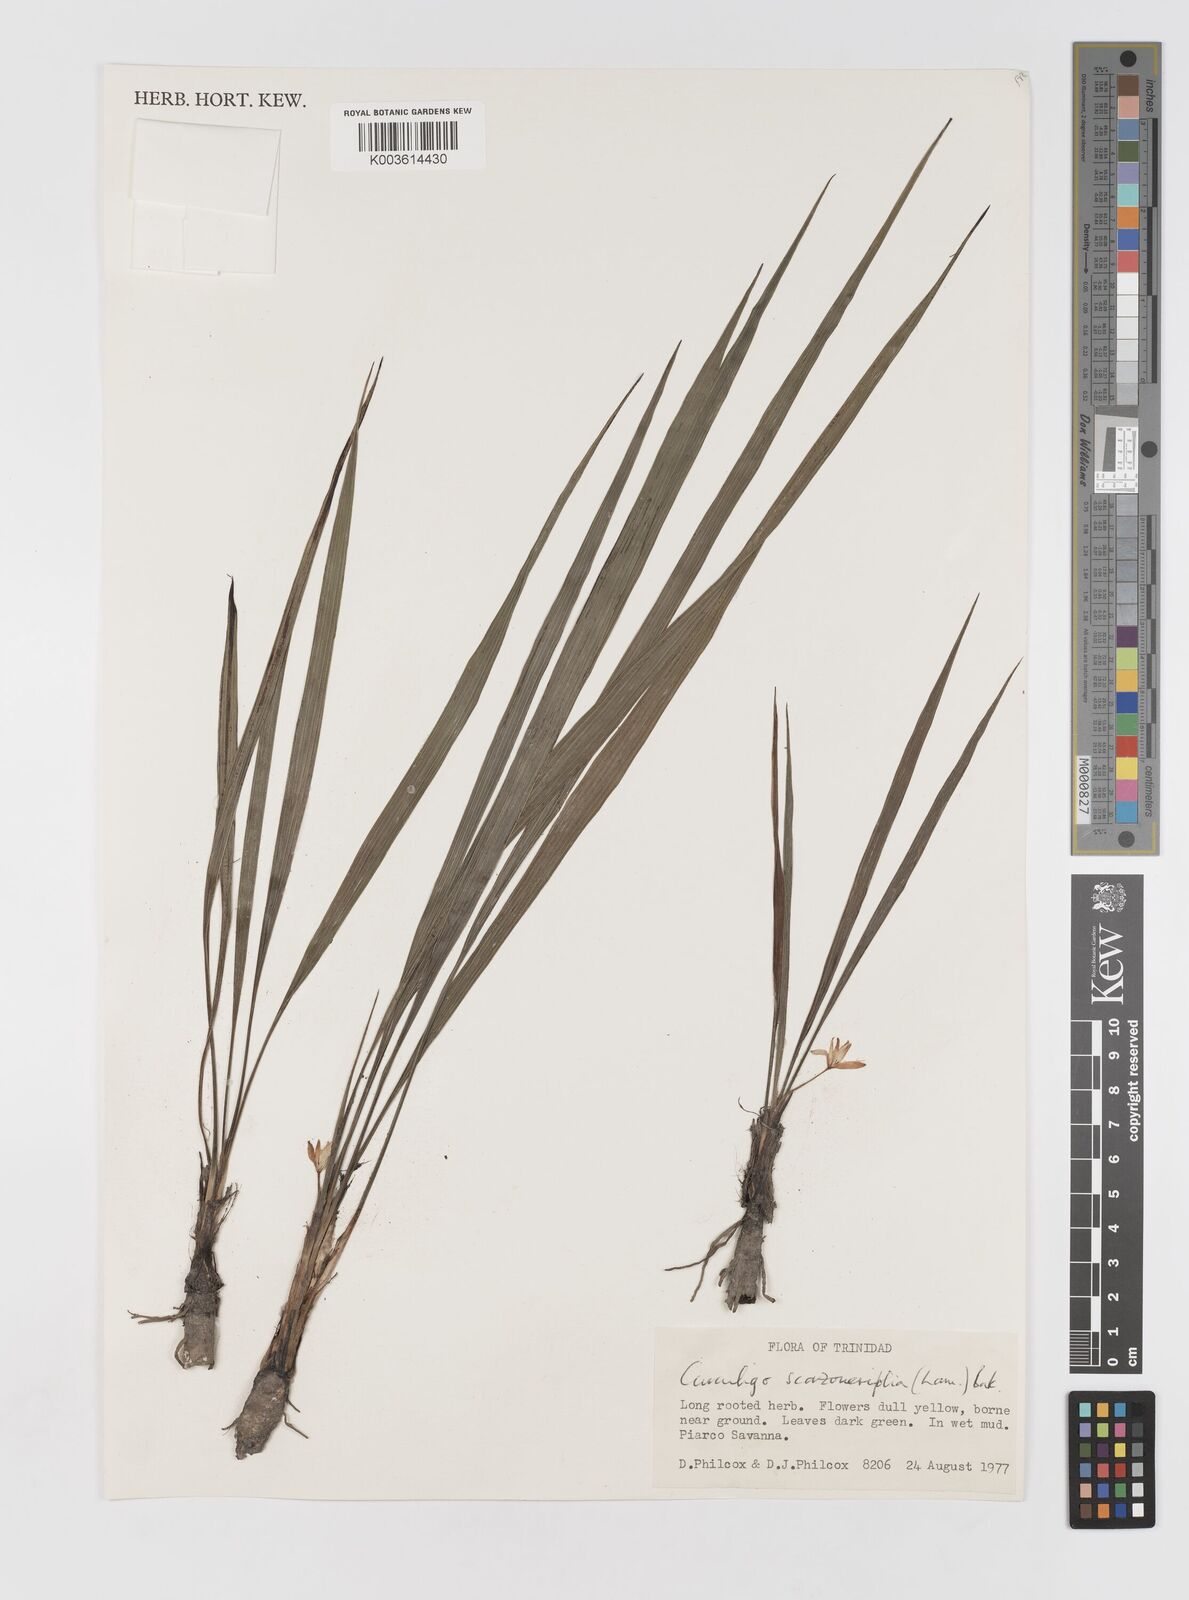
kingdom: Plantae
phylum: Tracheophyta
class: Liliopsida
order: Asparagales
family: Hypoxidaceae
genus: Curculigo
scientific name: Curculigo scorzonerifolia
